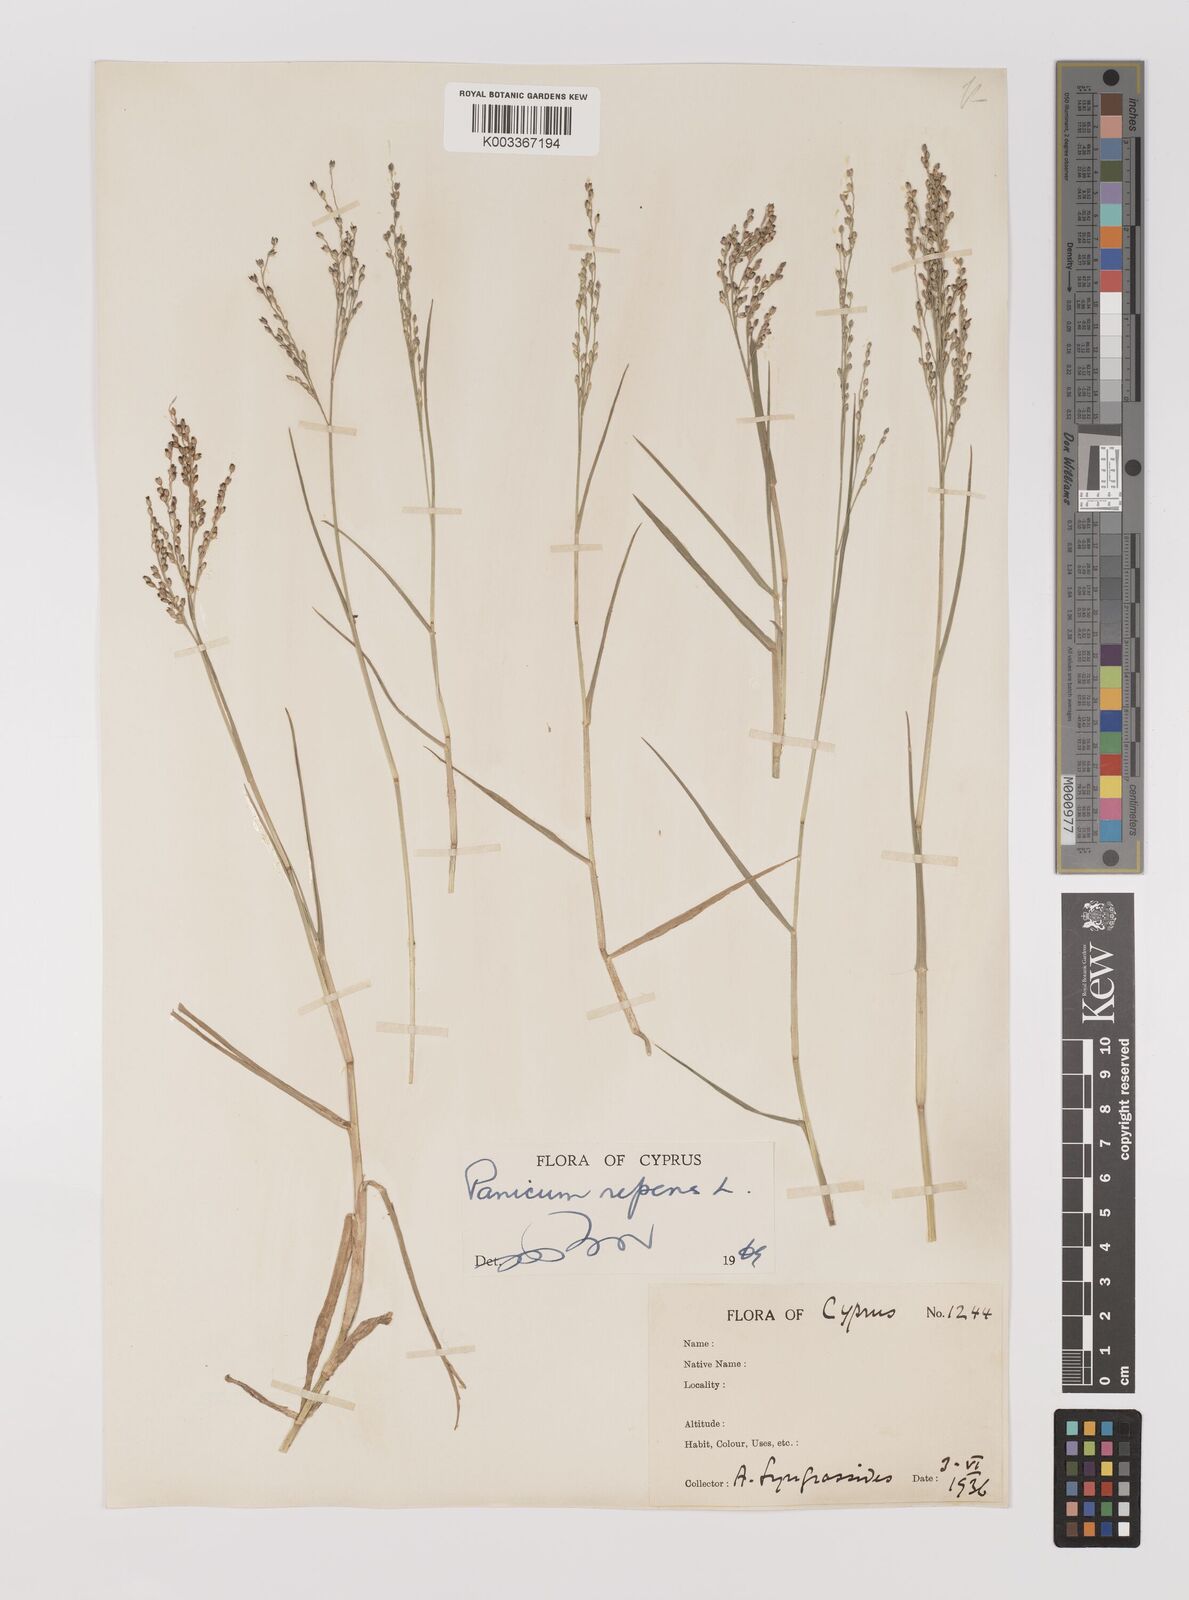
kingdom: Plantae
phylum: Tracheophyta
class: Liliopsida
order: Poales
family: Poaceae
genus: Panicum
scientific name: Panicum repens
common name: Torpedo grass
